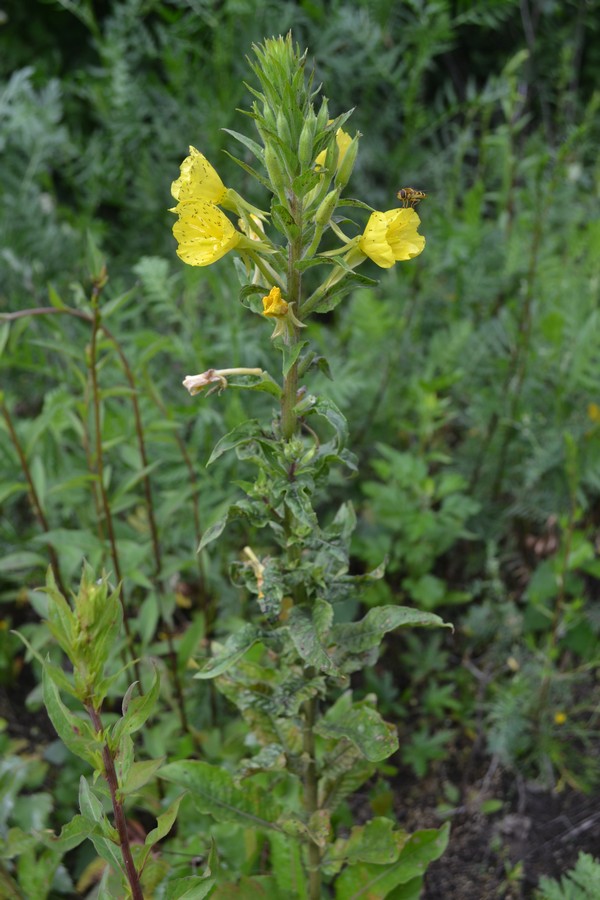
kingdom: Plantae
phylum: Tracheophyta
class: Magnoliopsida
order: Myrtales
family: Onagraceae
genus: Oenothera
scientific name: Oenothera rubricaulis
